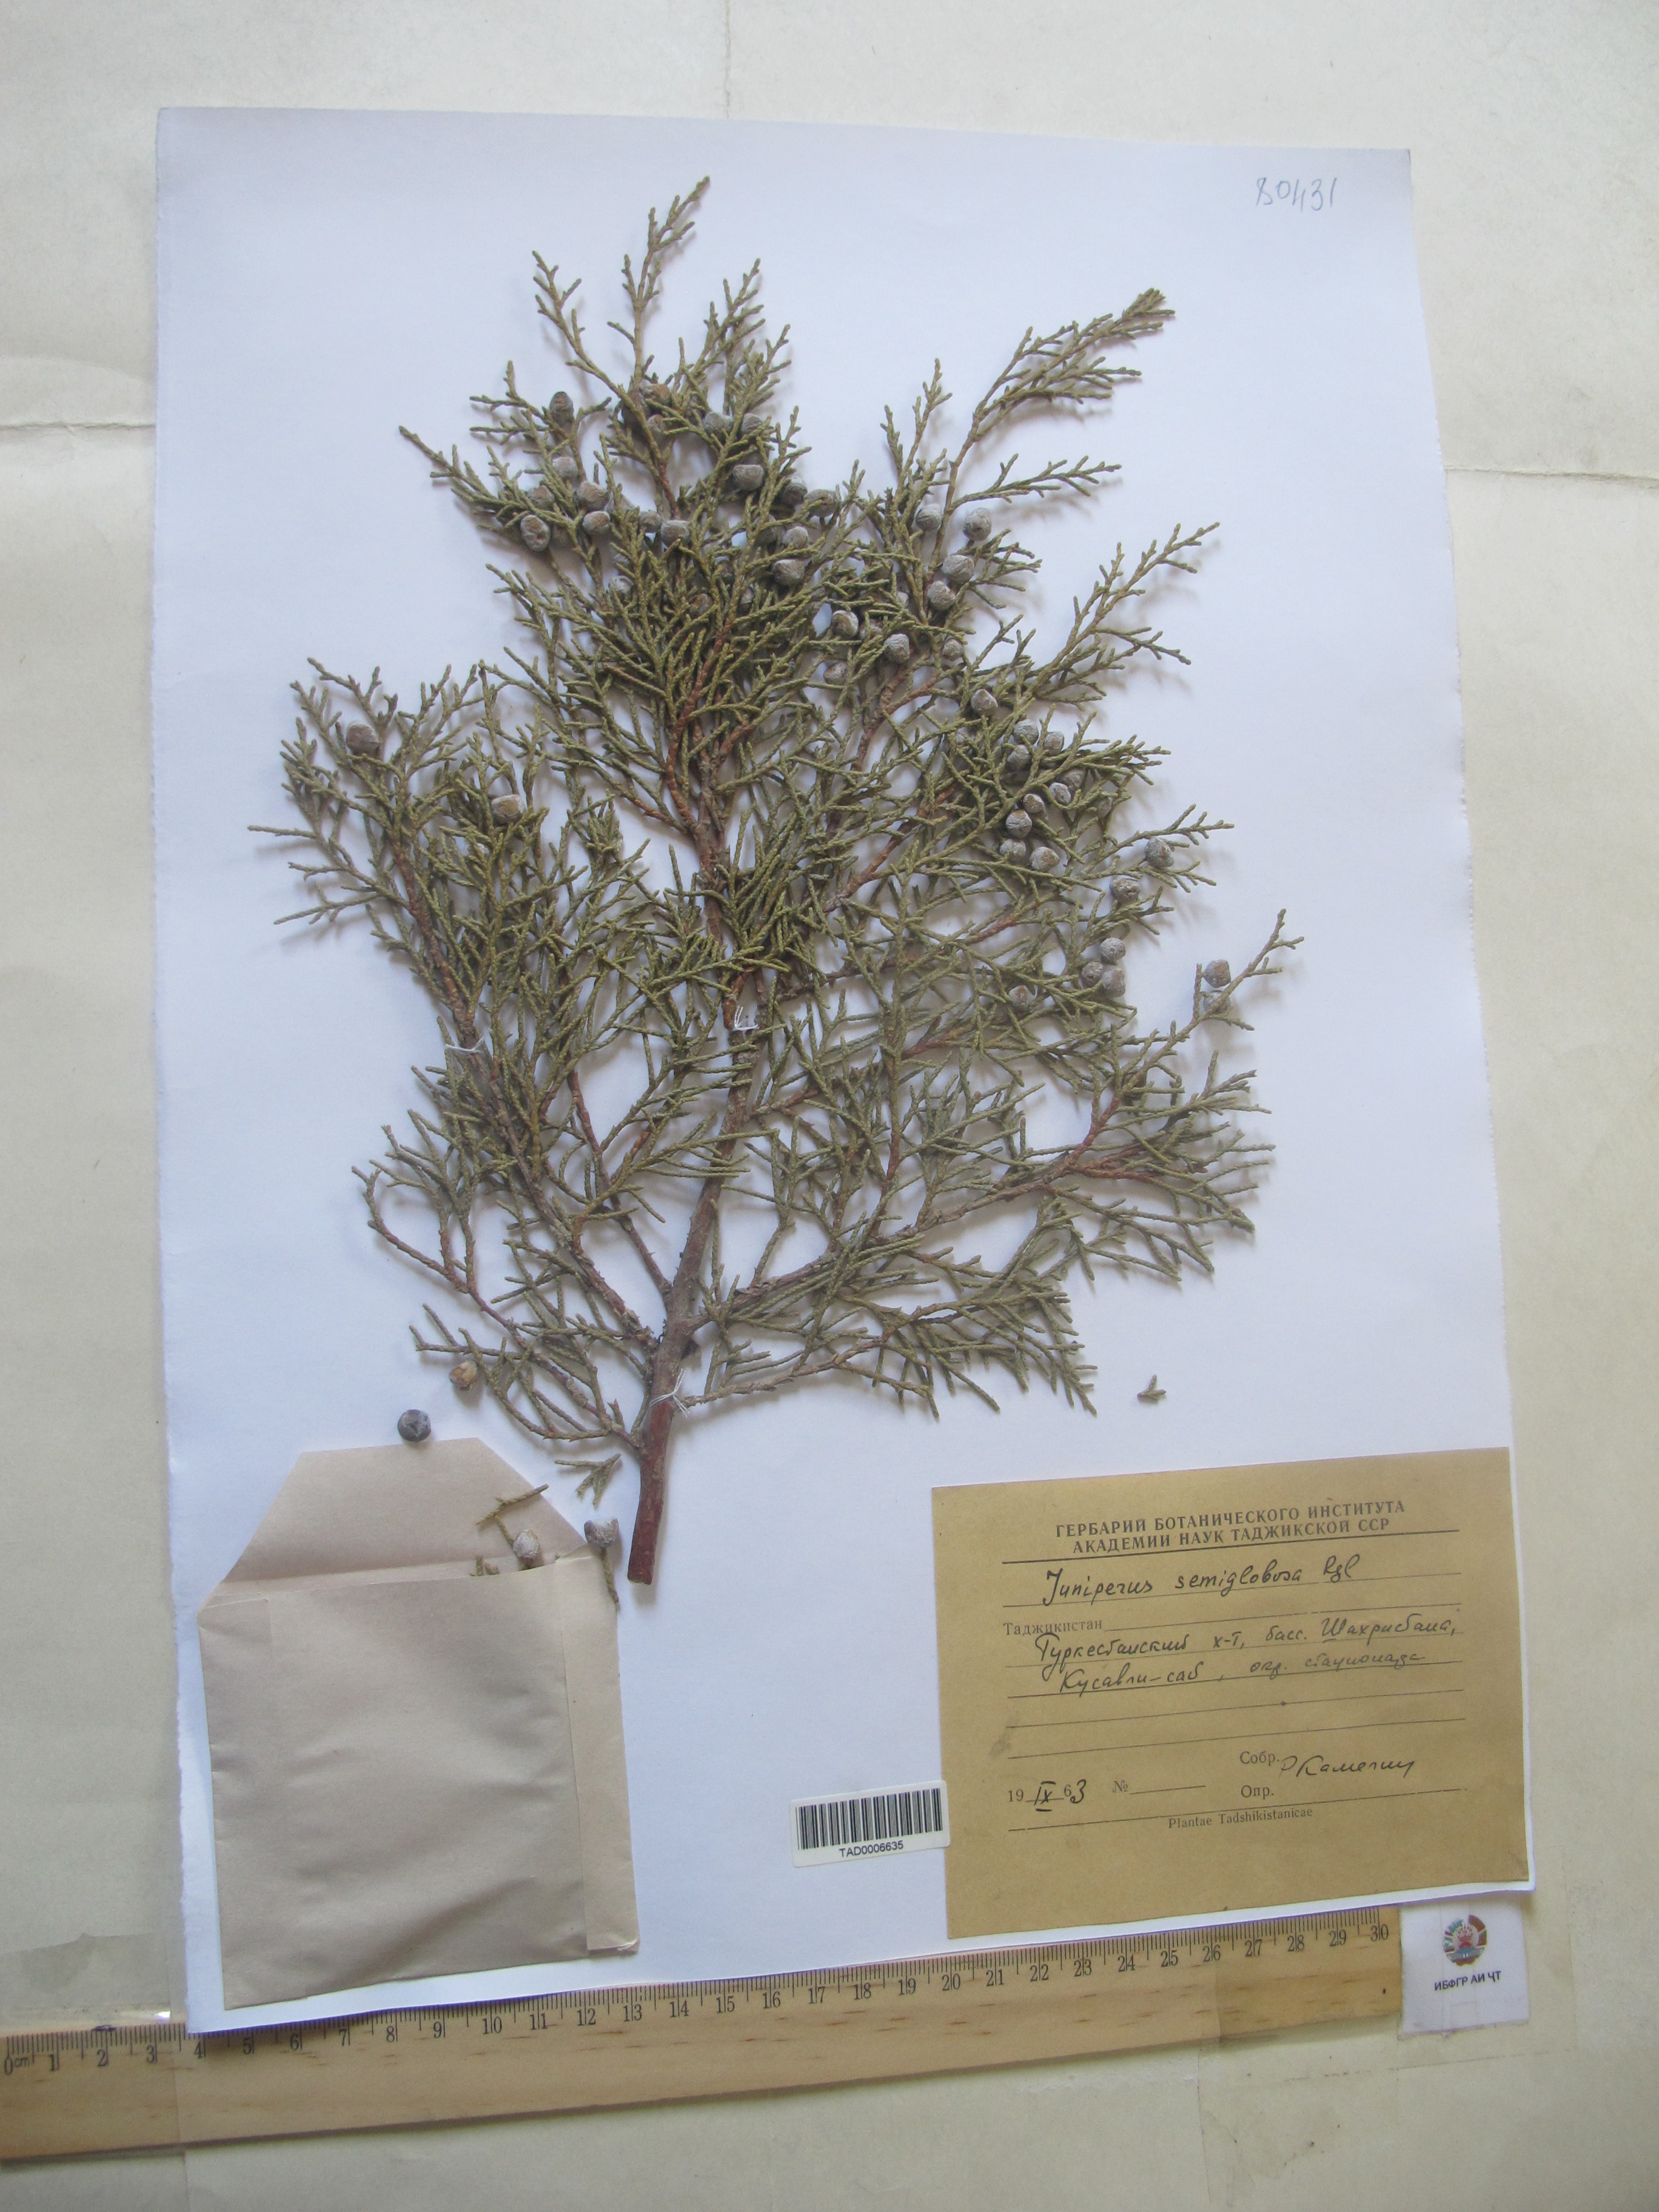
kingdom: Plantae
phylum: Tracheophyta
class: Pinopsida
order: Pinales
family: Cupressaceae
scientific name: Cupressaceae
